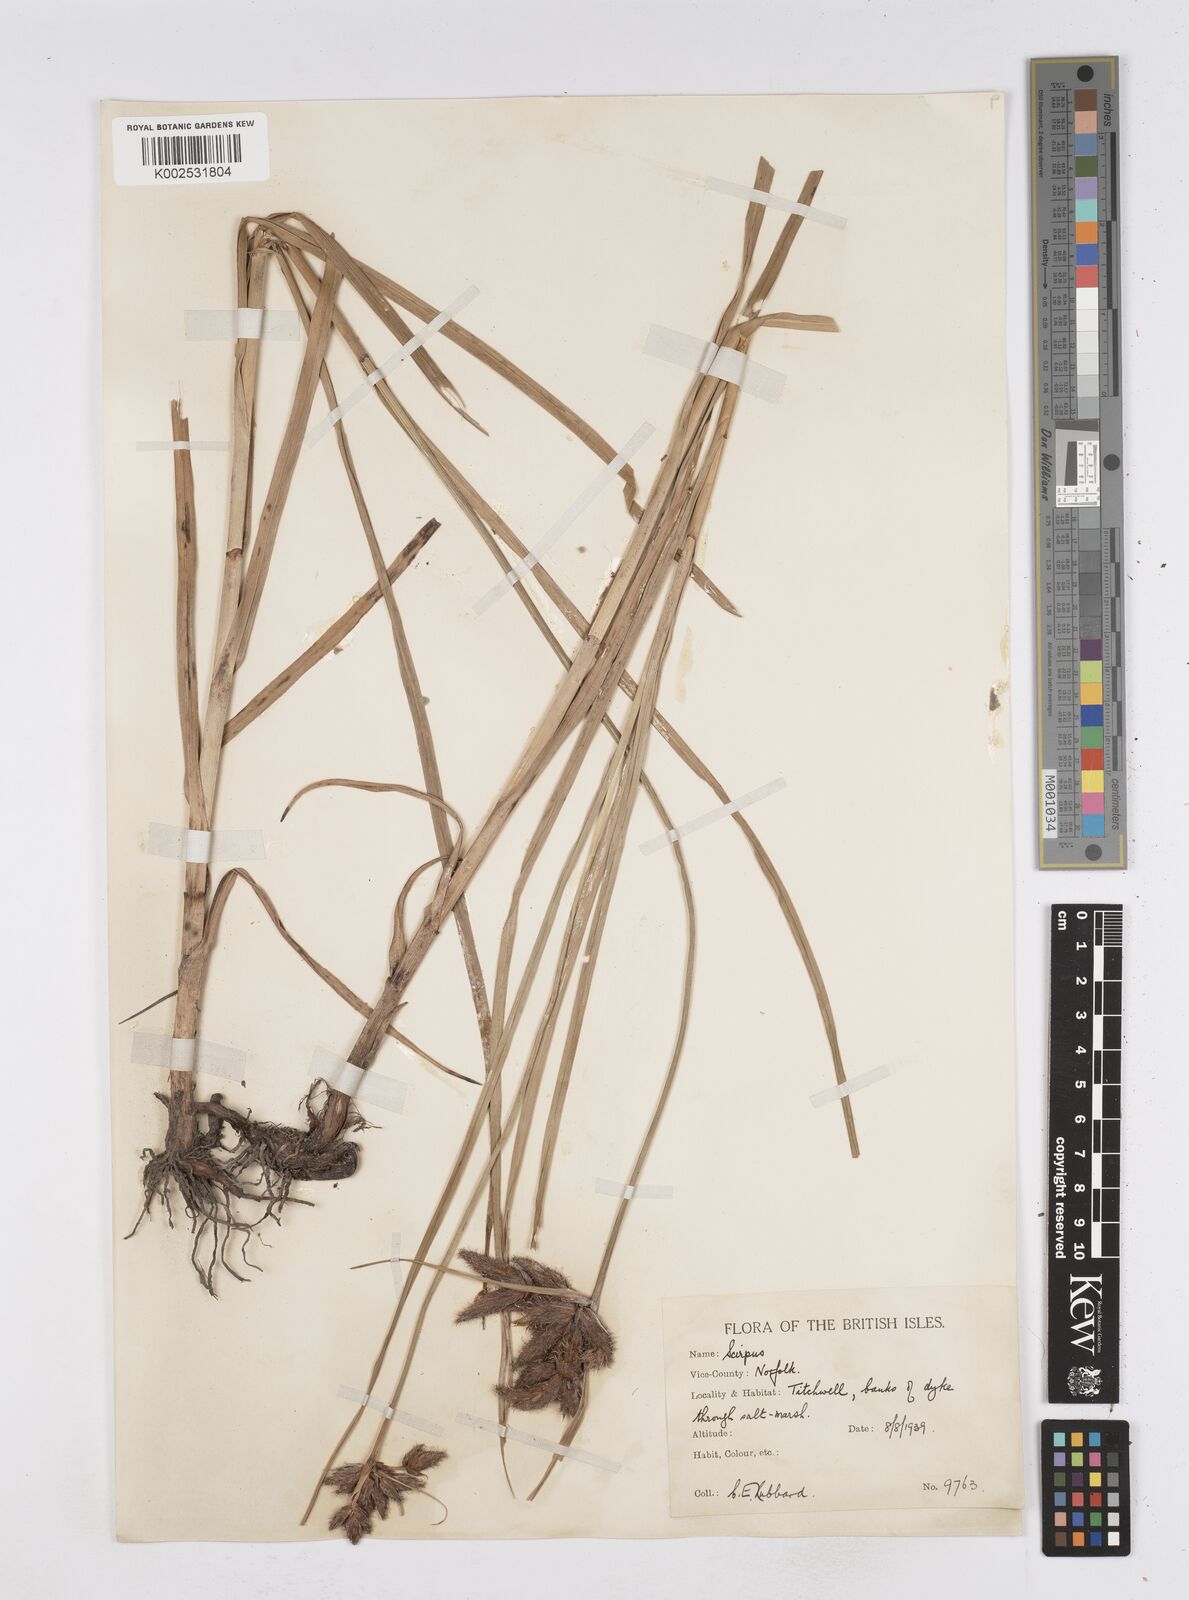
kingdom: Plantae
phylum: Tracheophyta
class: Liliopsida
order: Poales
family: Cyperaceae
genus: Bolboschoenus
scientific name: Bolboschoenus maritimus
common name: Sea club-rush
